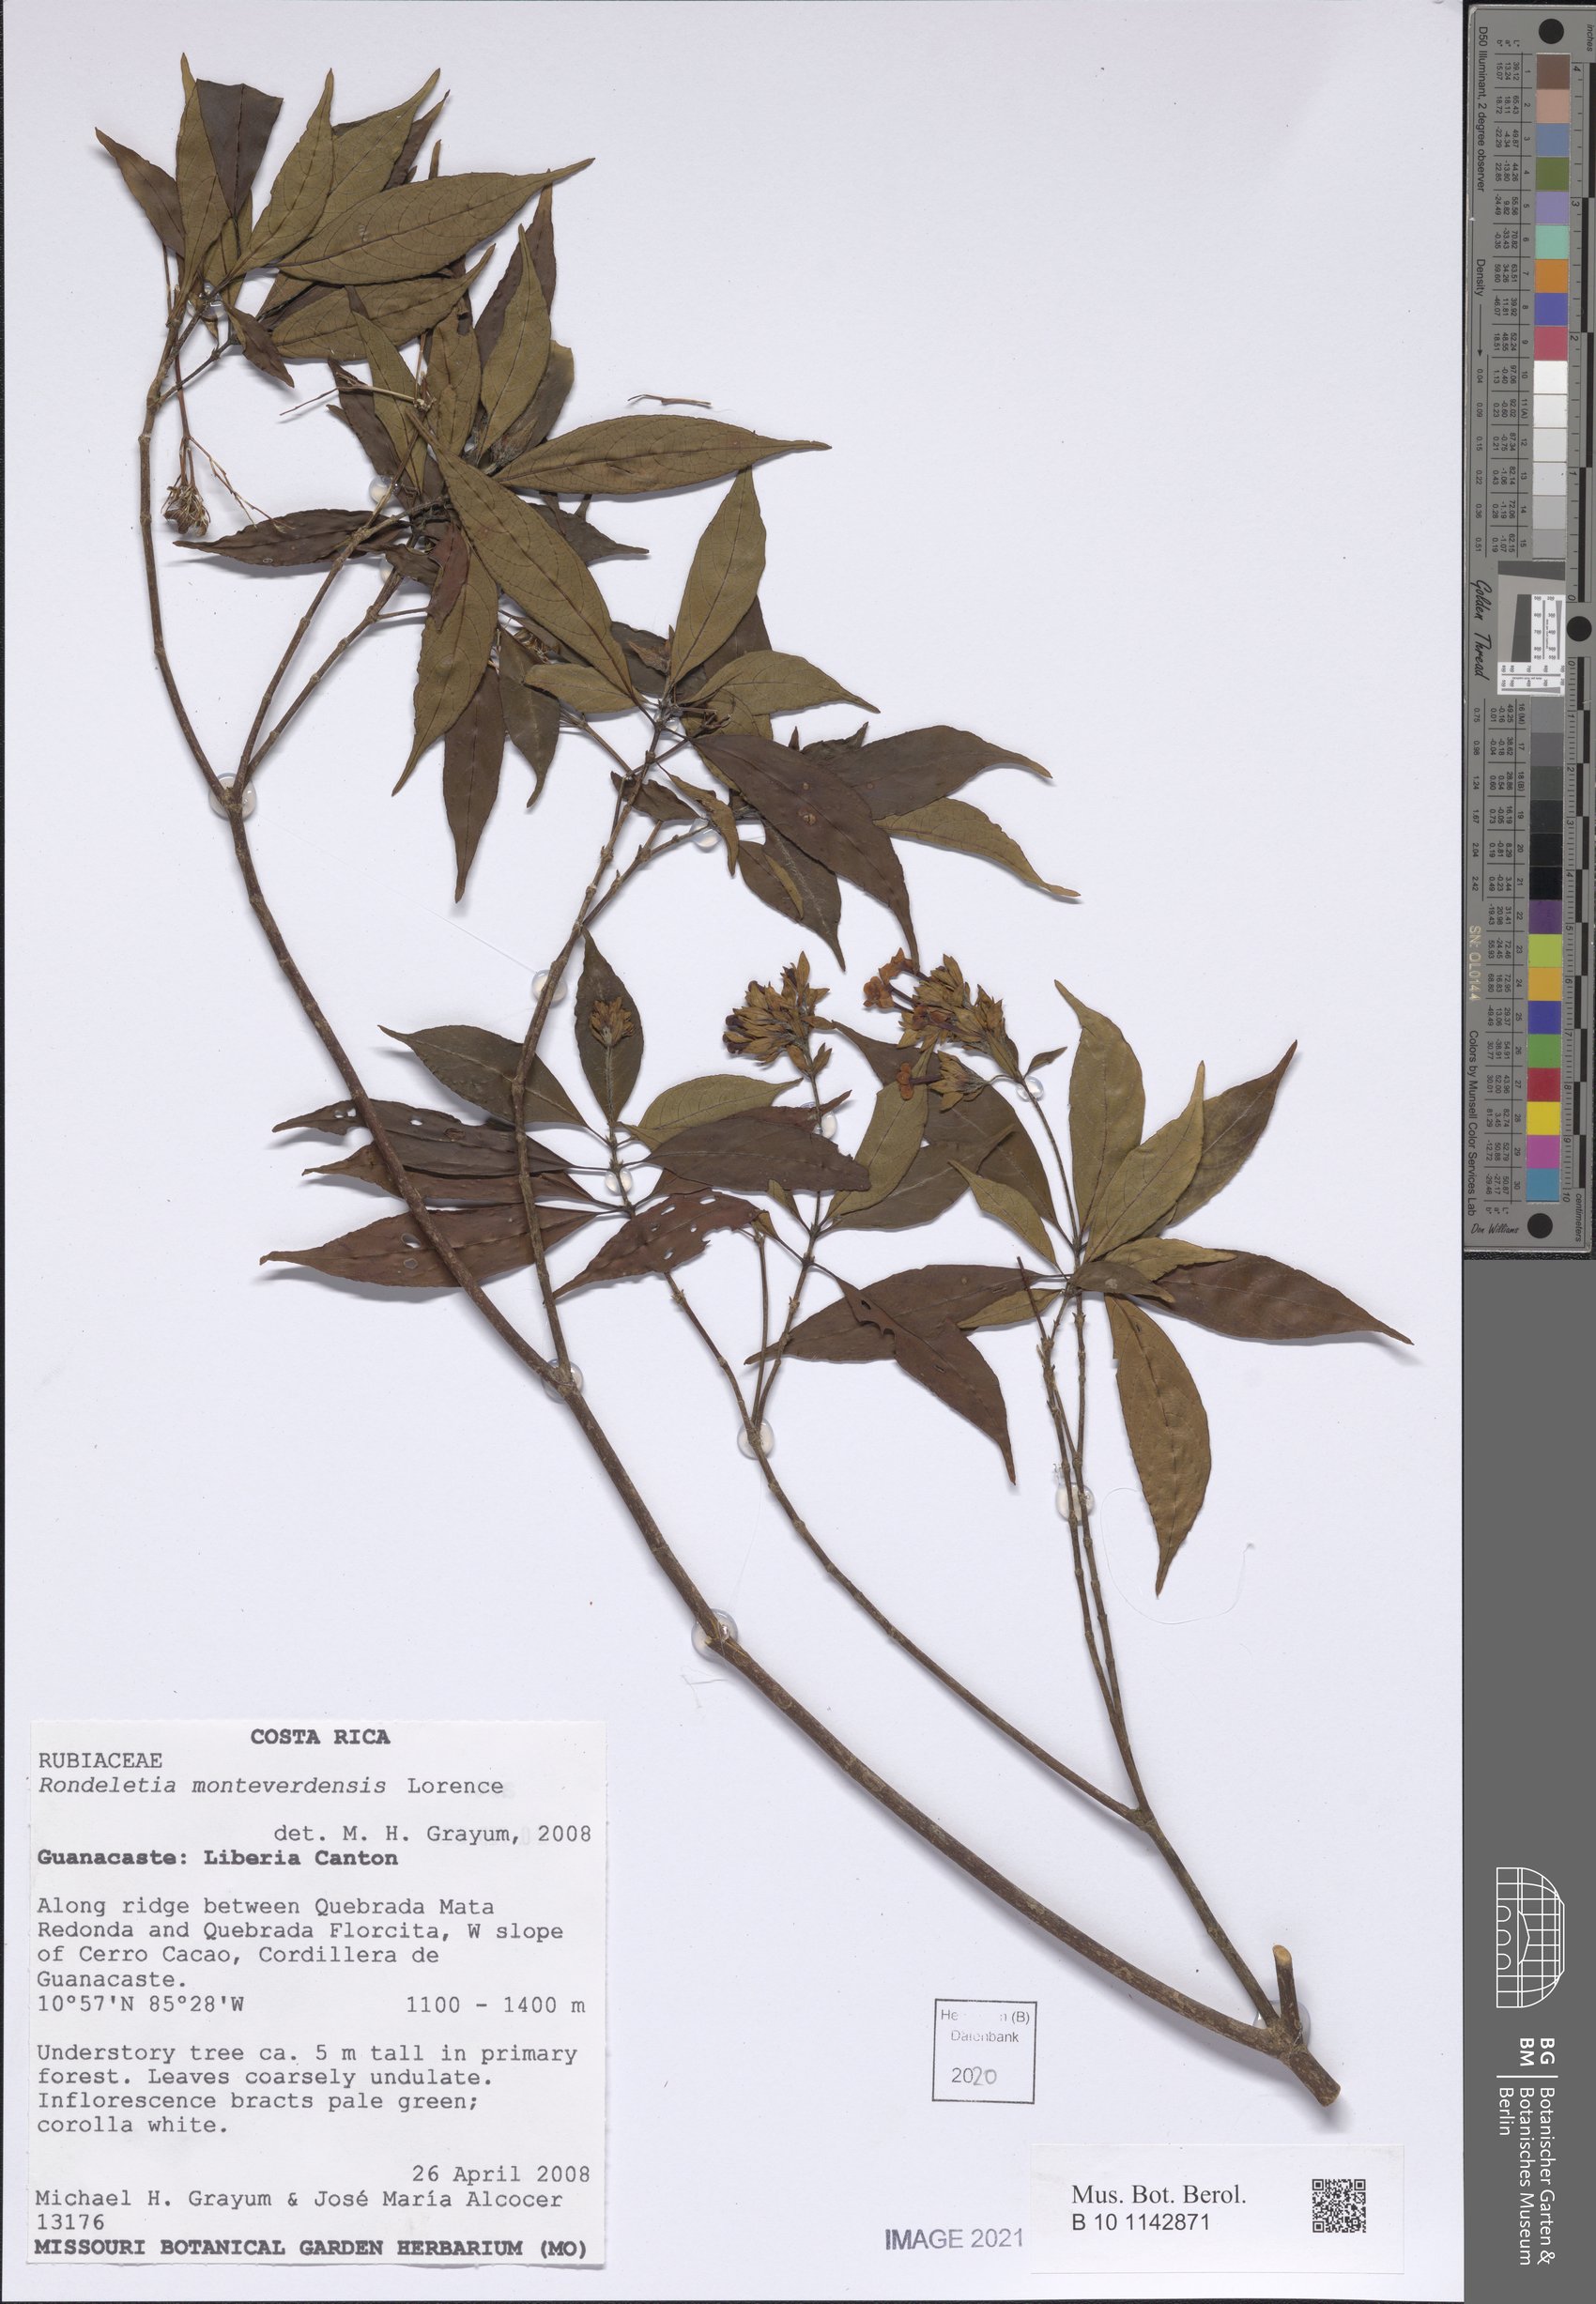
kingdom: Plantae
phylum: Tracheophyta
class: Magnoliopsida
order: Gentianales
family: Rubiaceae
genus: Arachnothryx
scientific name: Arachnothryx monteverdensis
